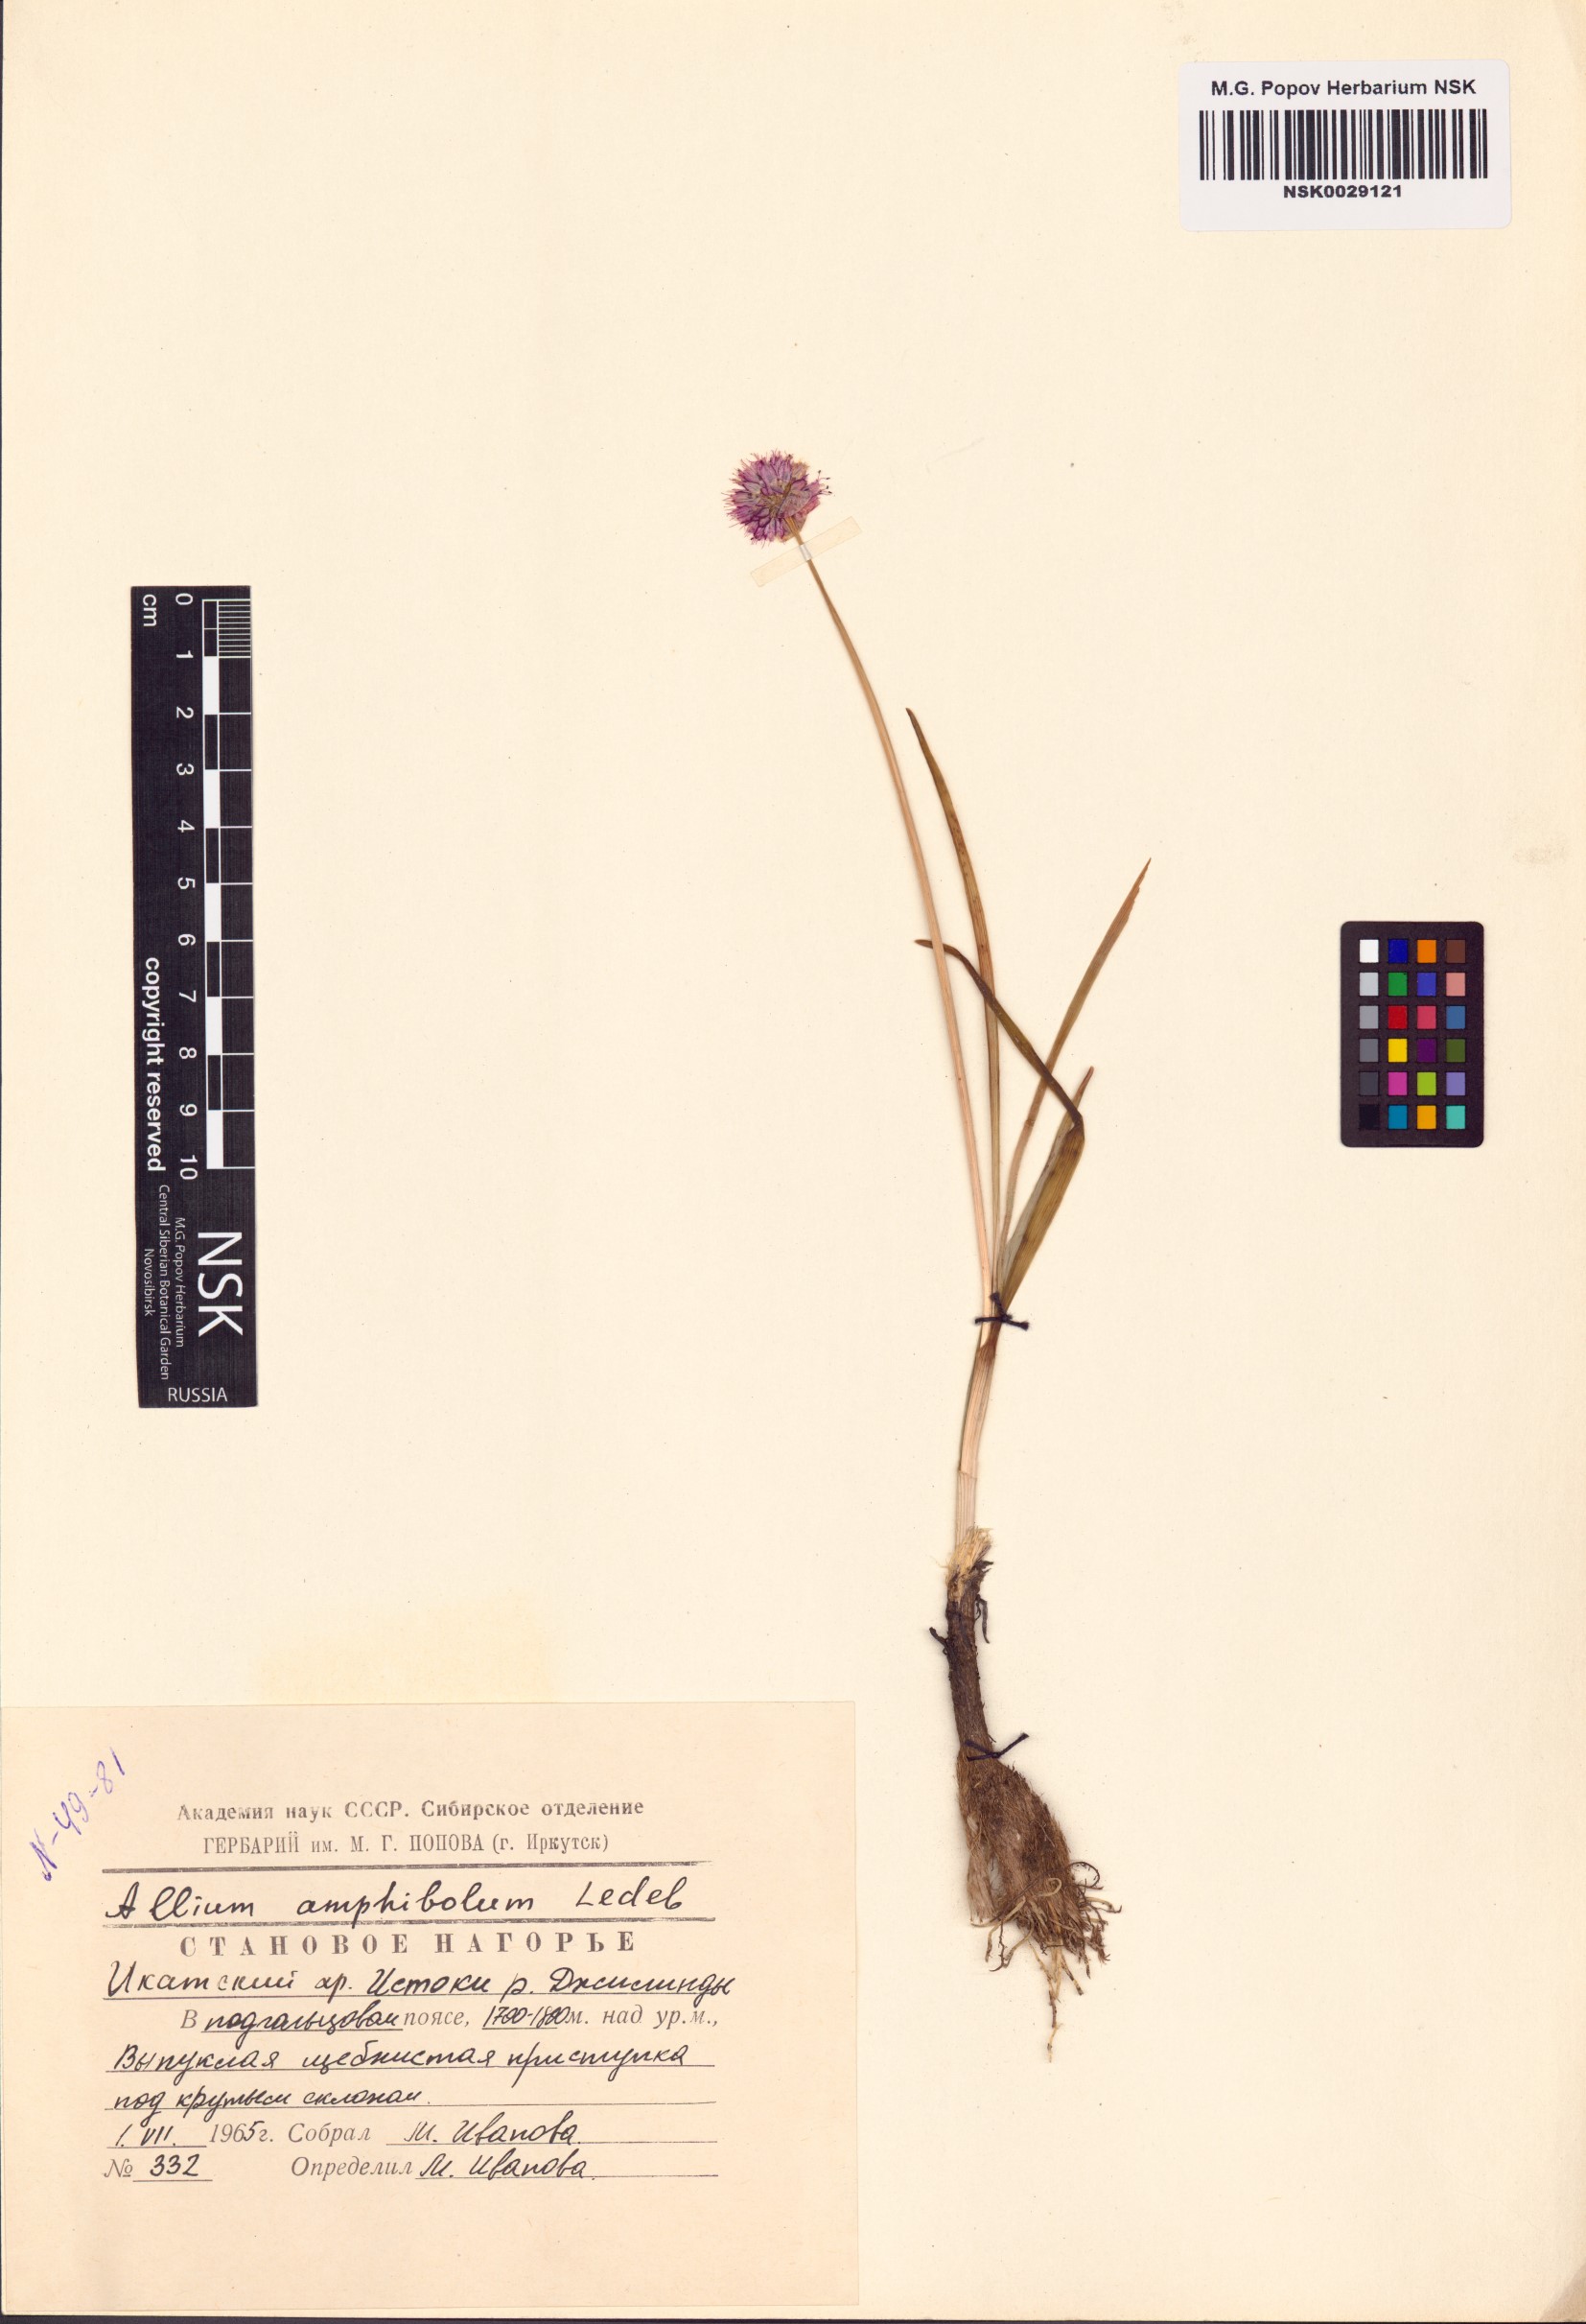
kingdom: Plantae
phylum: Tracheophyta
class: Liliopsida
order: Asparagales
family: Amaryllidaceae
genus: Allium
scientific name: Allium amphibolum
